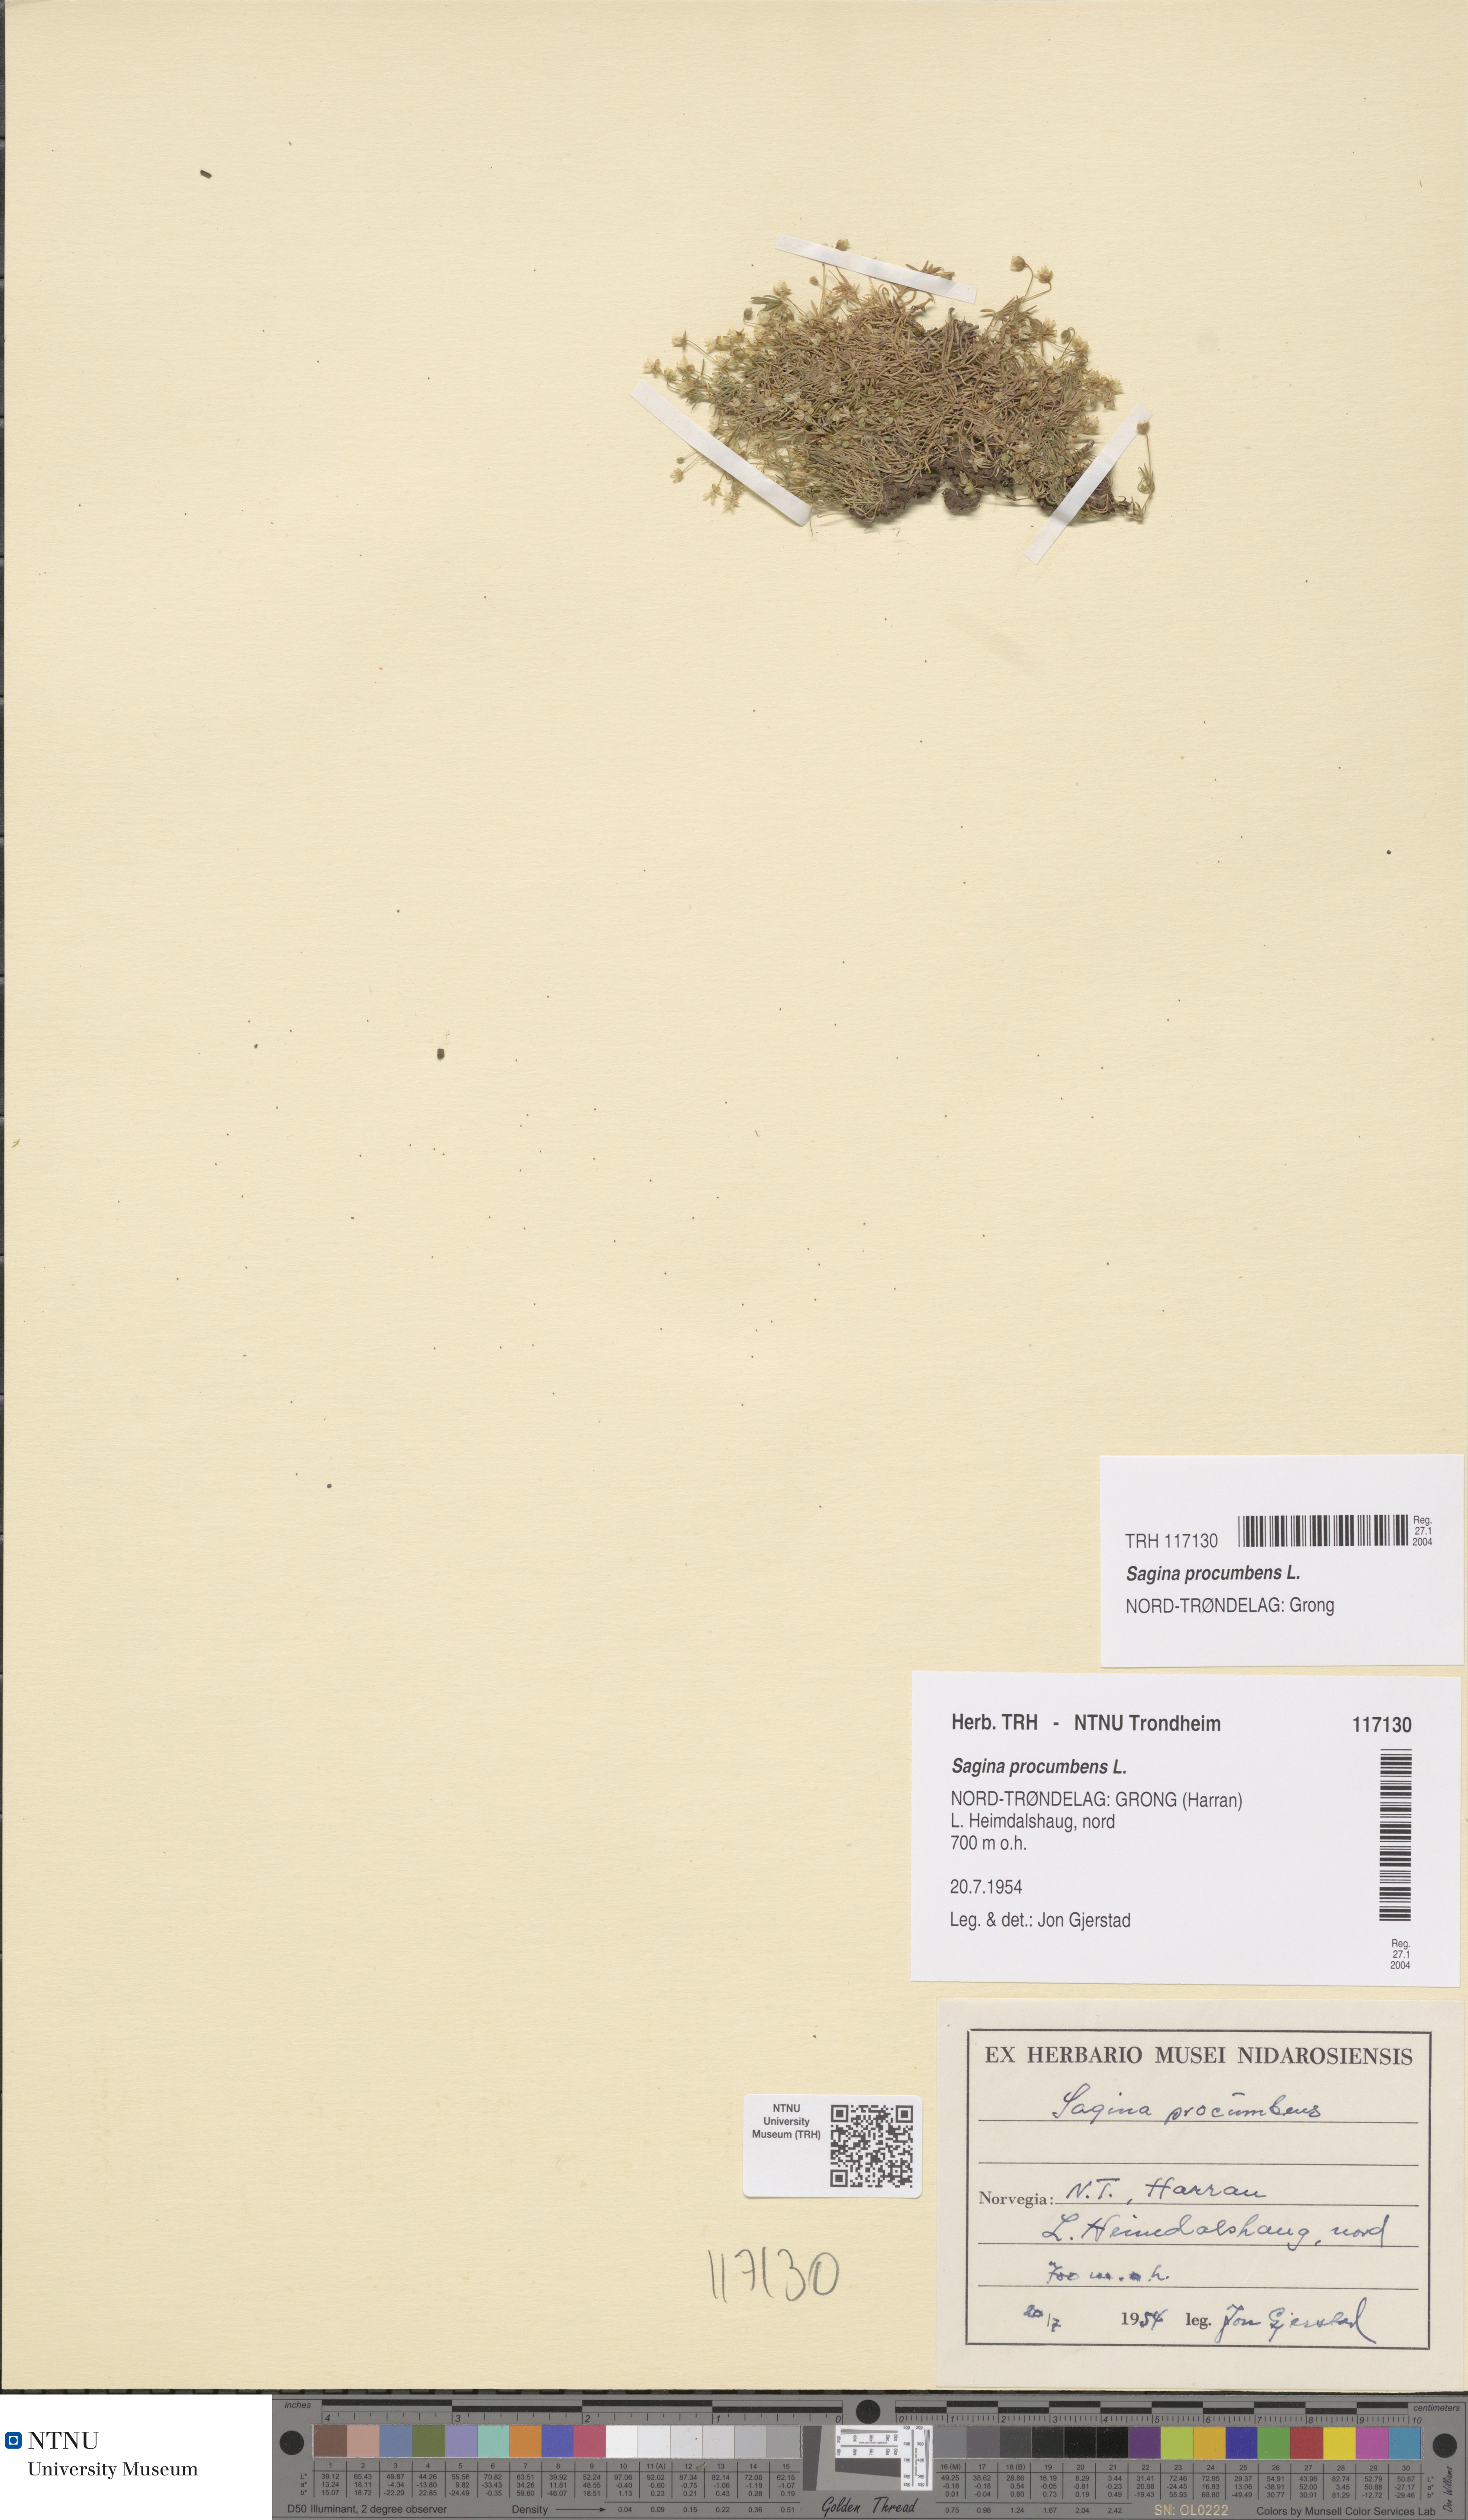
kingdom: Plantae
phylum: Tracheophyta
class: Magnoliopsida
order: Caryophyllales
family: Caryophyllaceae
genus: Sagina
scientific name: Sagina procumbens
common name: Procumbent pearlwort
